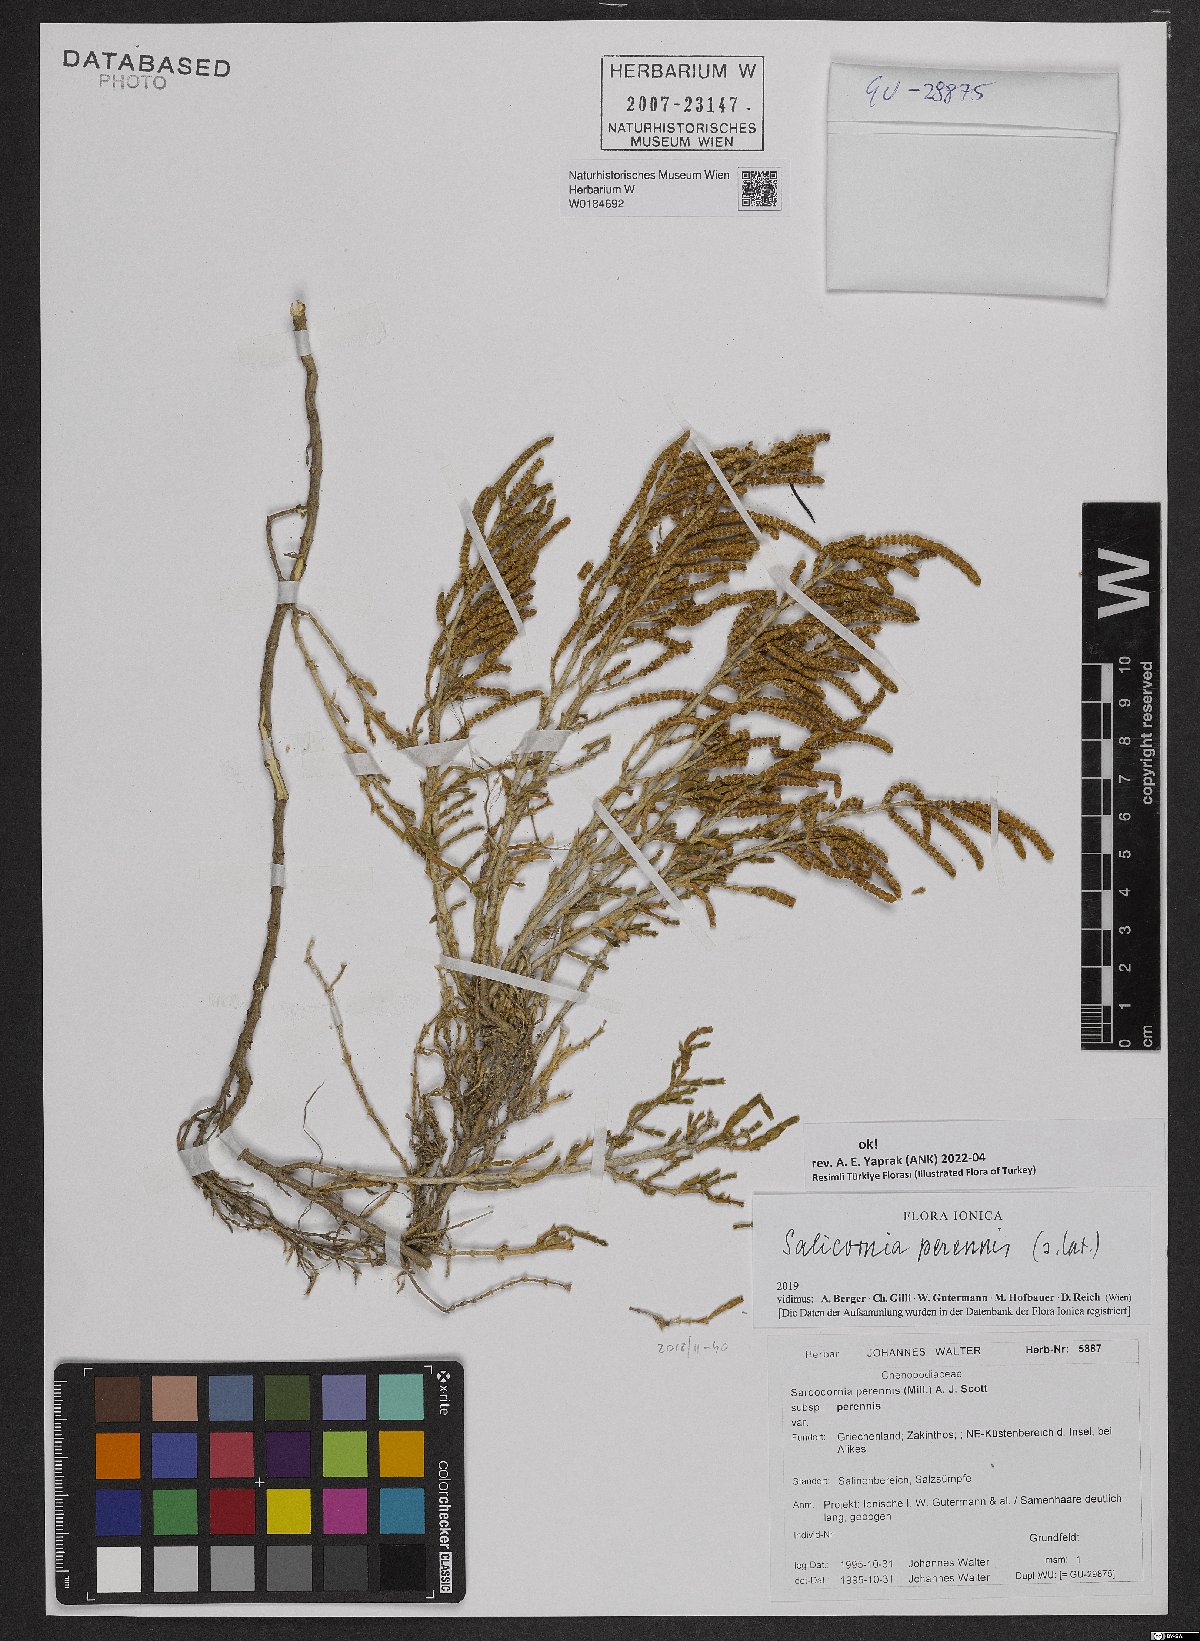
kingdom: Plantae
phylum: Tracheophyta
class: Magnoliopsida
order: Caryophyllales
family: Amaranthaceae
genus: Salicornia
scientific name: Salicornia perennis
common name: Chicken claws
